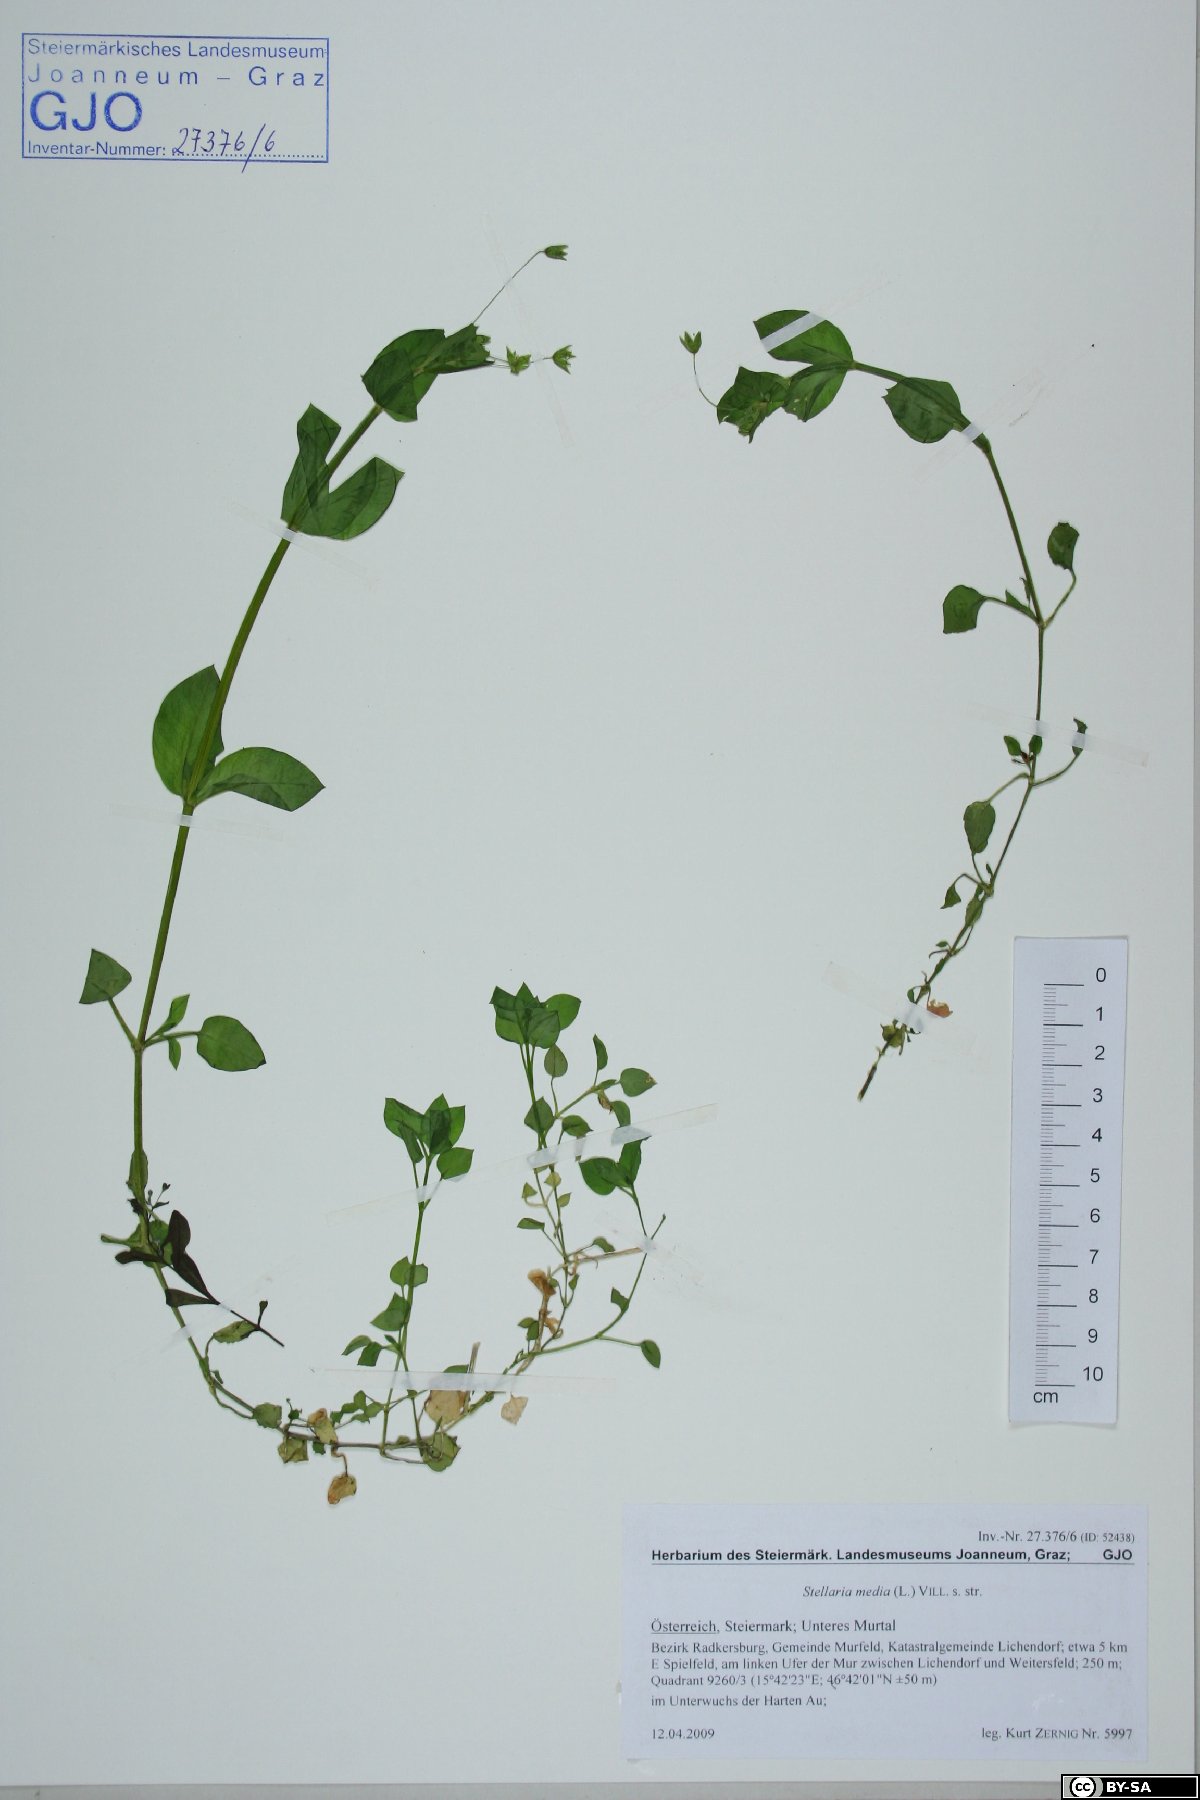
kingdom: Plantae
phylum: Tracheophyta
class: Magnoliopsida
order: Caryophyllales
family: Caryophyllaceae
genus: Stellaria
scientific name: Stellaria media
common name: Common chickweed
